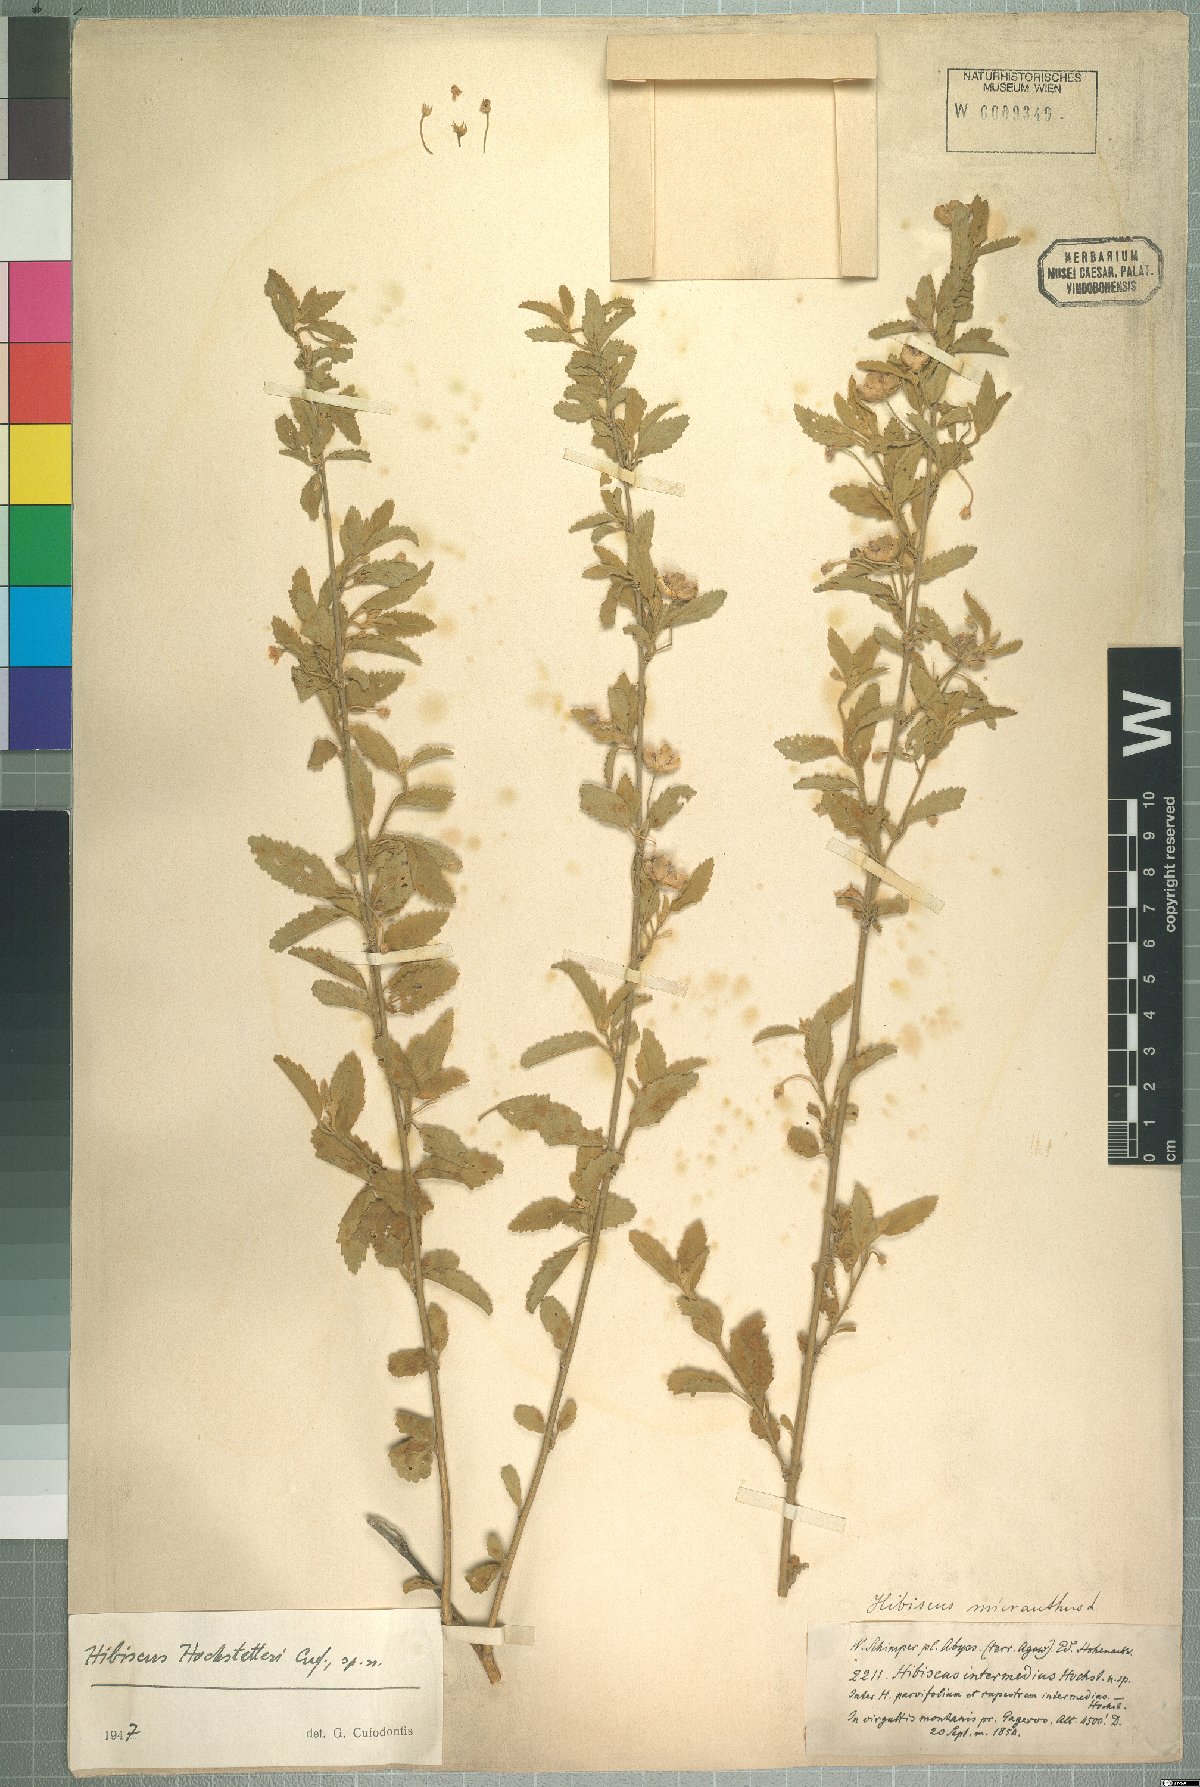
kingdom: Plantae
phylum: Tracheophyta
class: Magnoliopsida
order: Malvales
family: Malvaceae
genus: Hibiscus
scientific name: Hibiscus hochstetteri
